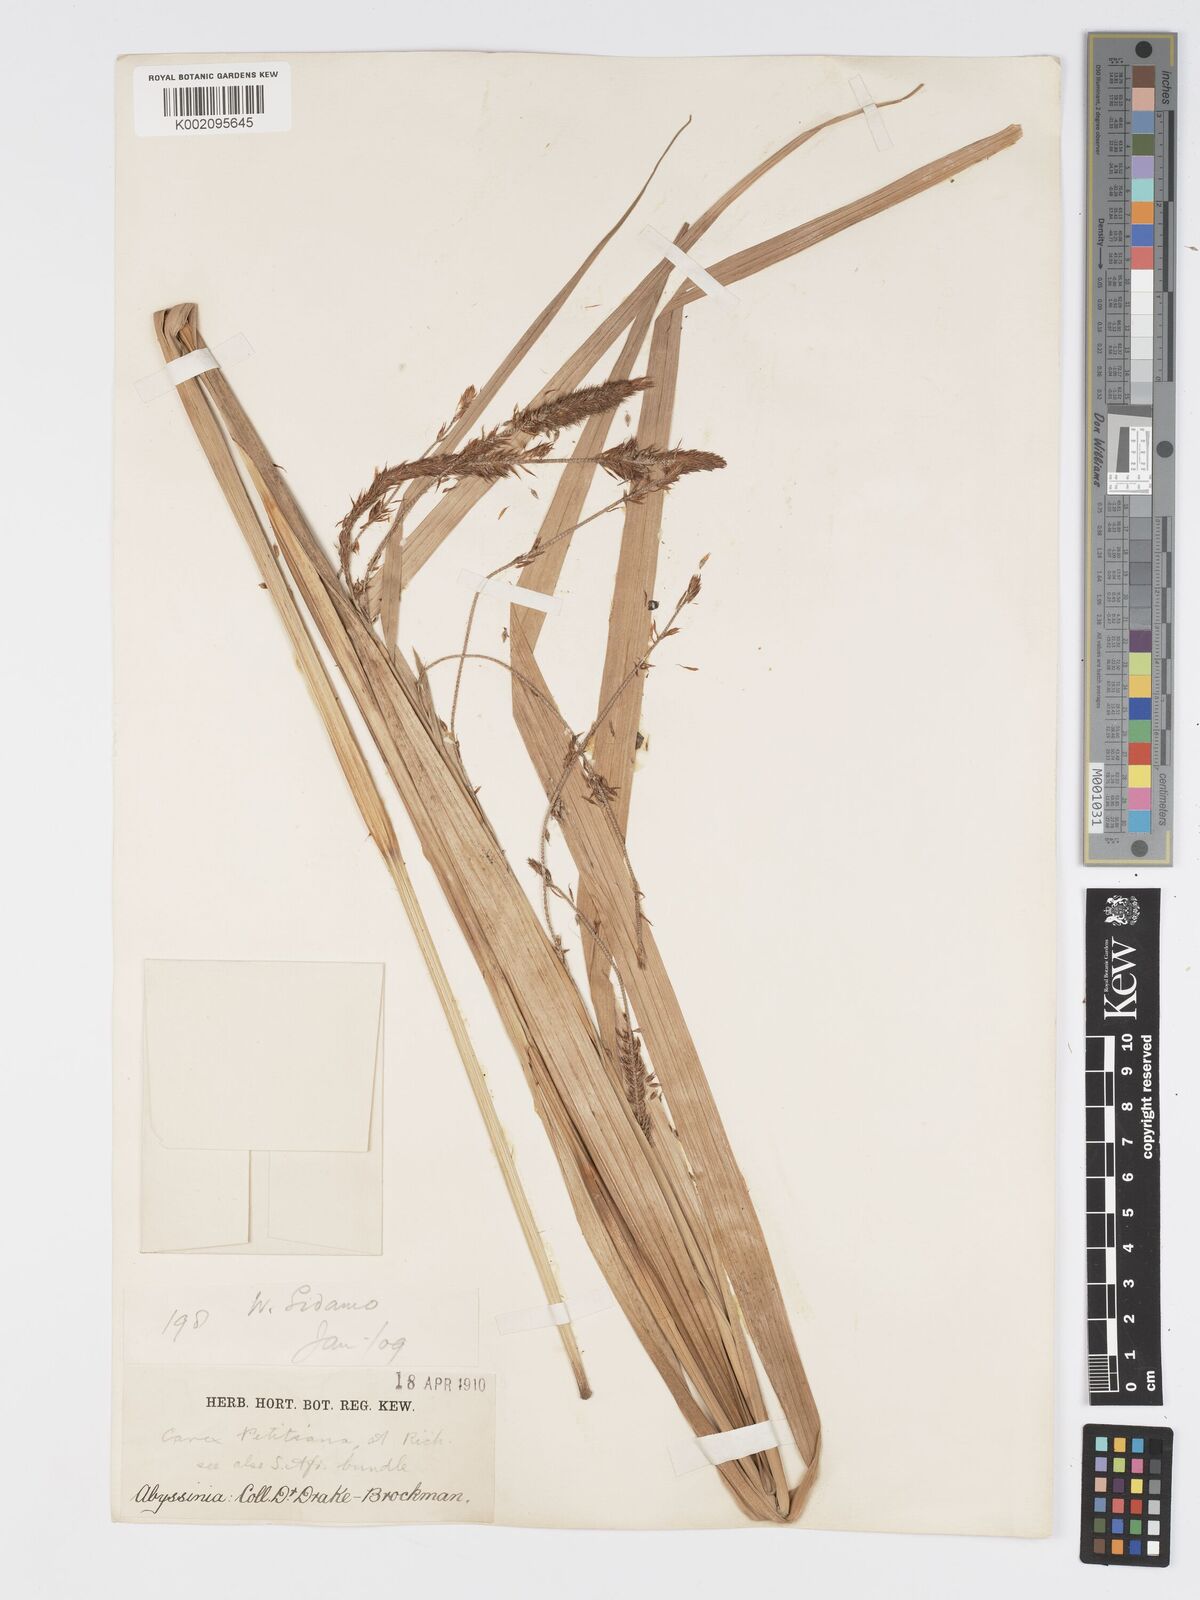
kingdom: Plantae
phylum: Tracheophyta
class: Liliopsida
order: Poales
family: Cyperaceae
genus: Carex
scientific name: Carex bequaertii
